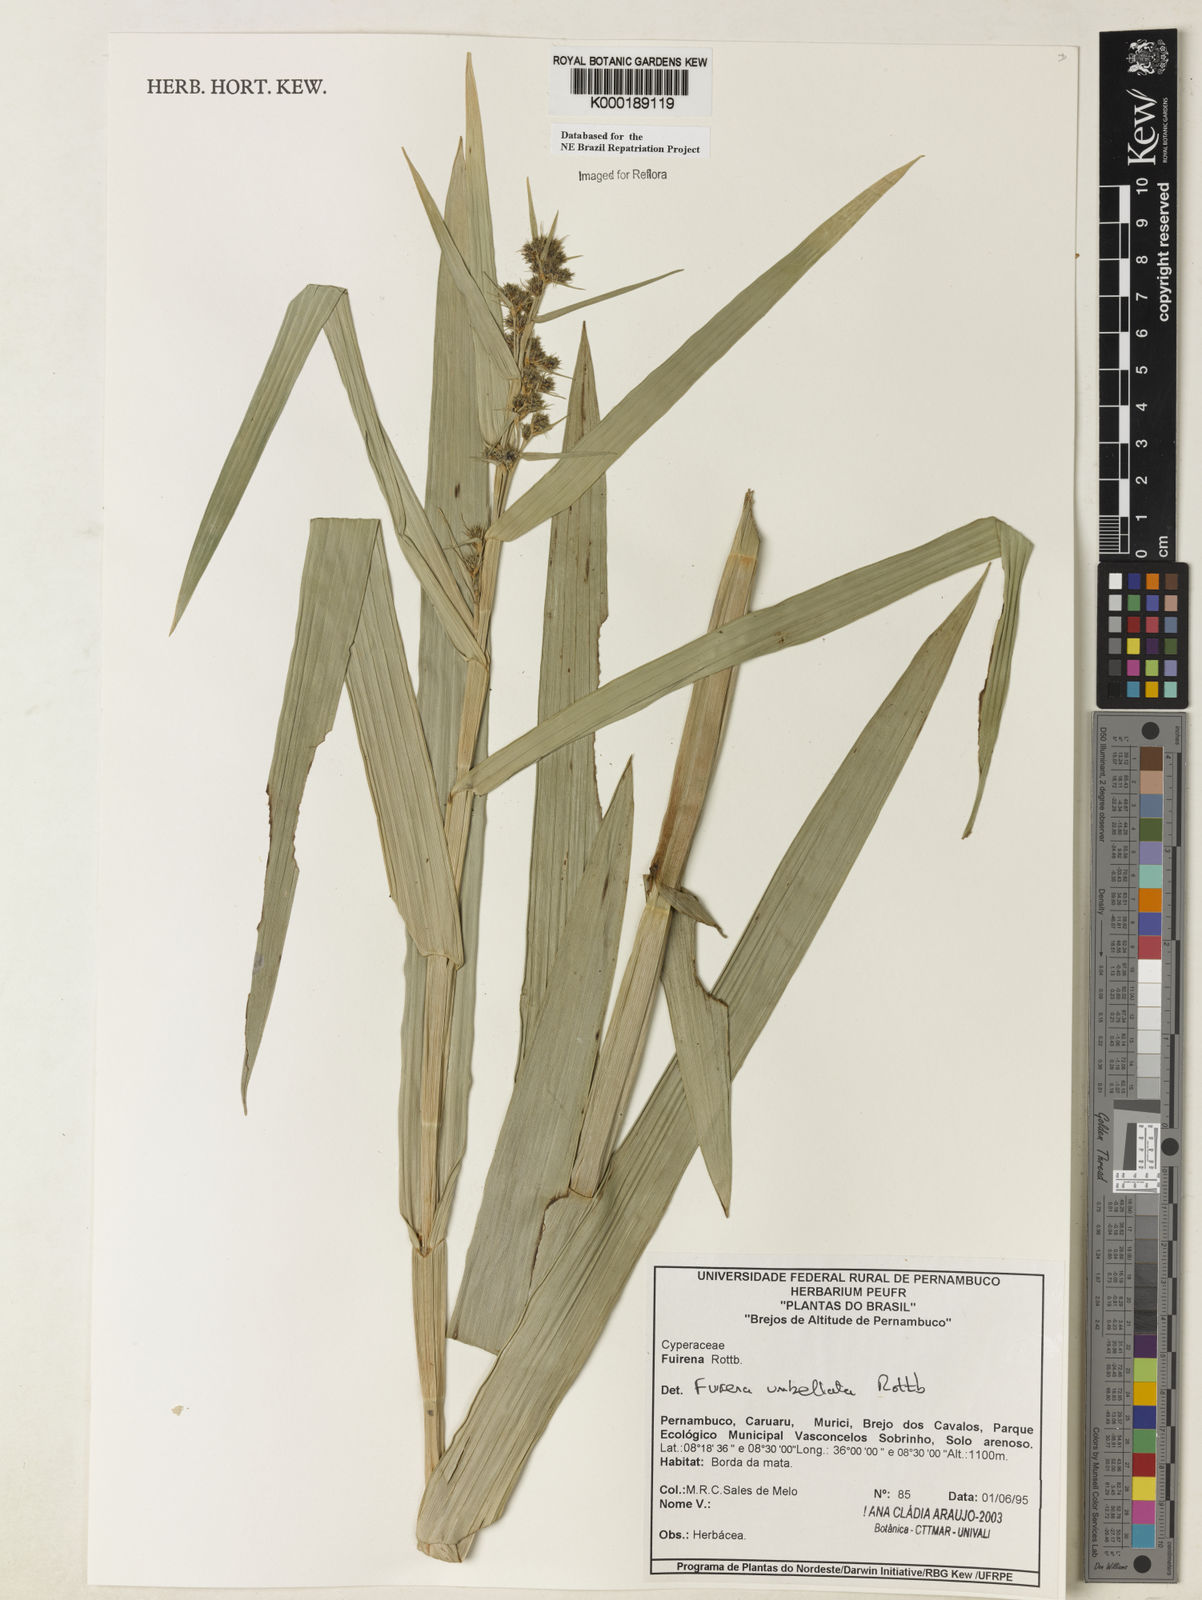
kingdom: Plantae
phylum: Tracheophyta
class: Liliopsida
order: Poales
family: Cyperaceae
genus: Fuirena
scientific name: Fuirena umbellata
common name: Yefen
